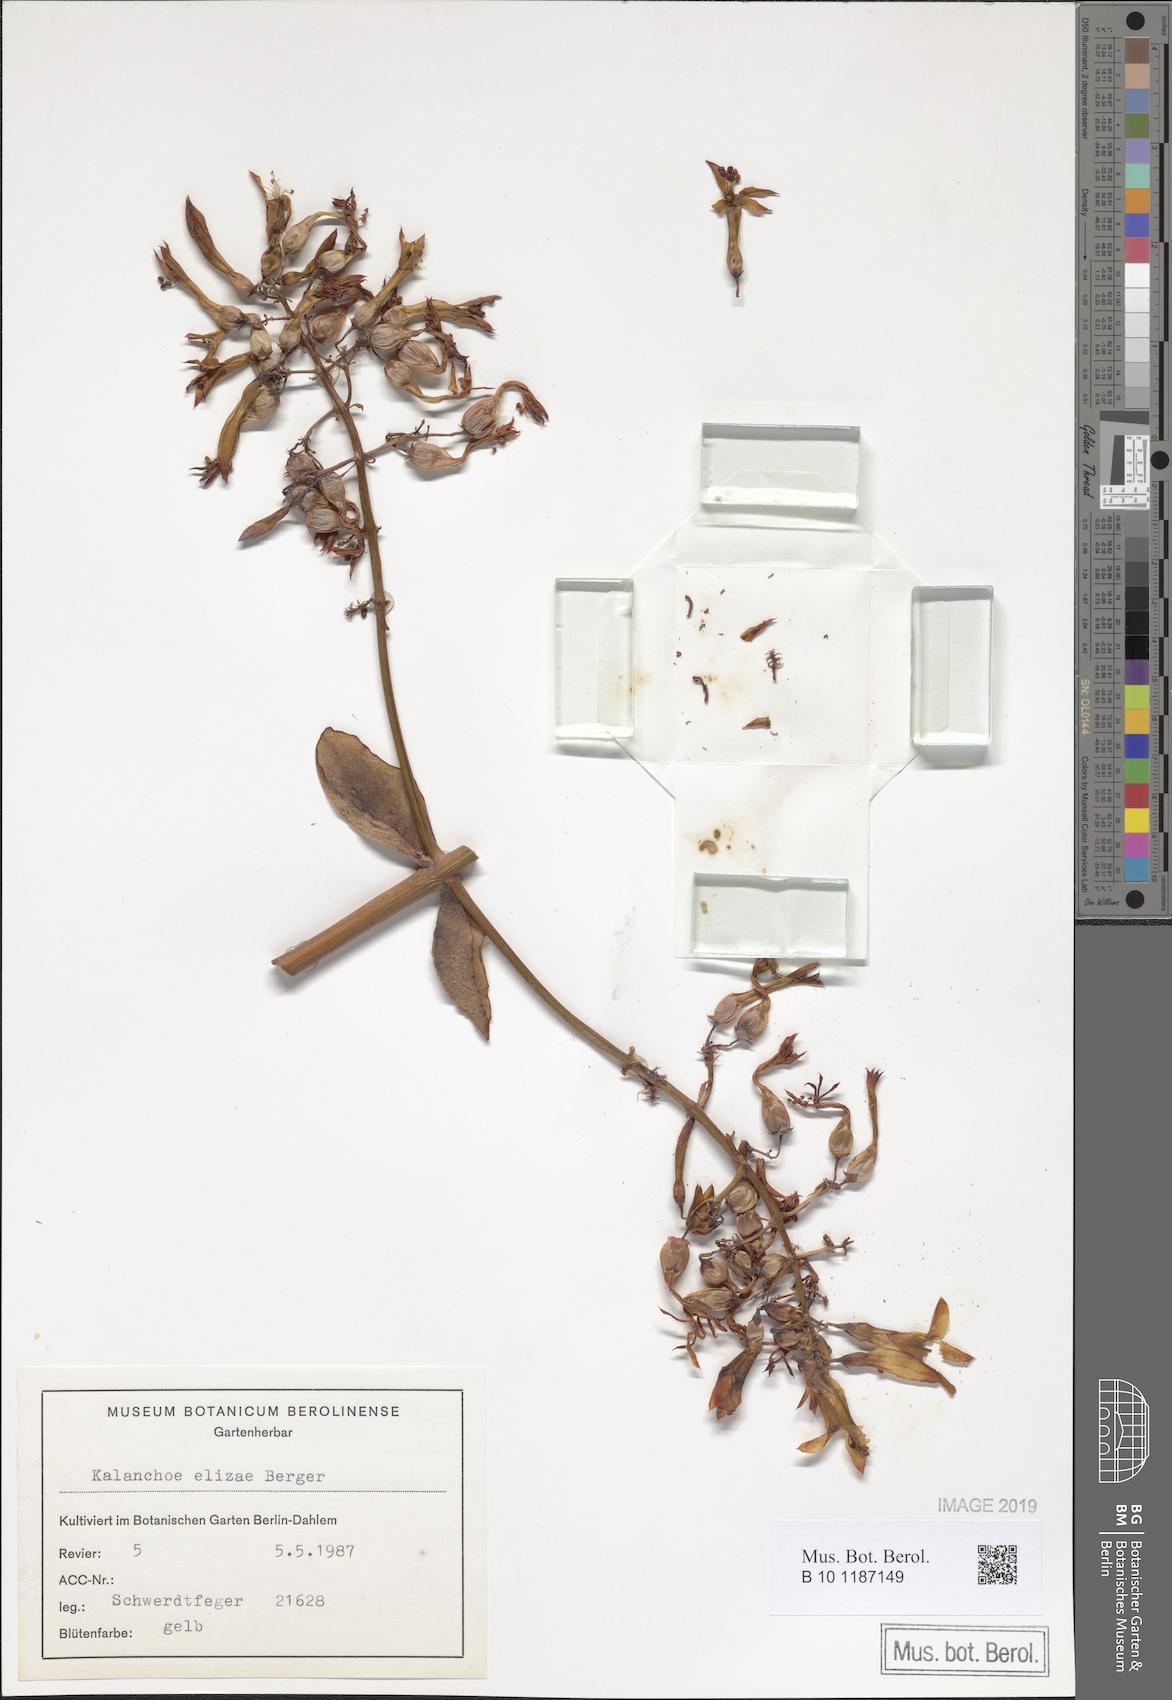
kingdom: Plantae
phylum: Tracheophyta
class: Magnoliopsida
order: Saxifragales
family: Crassulaceae
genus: Kalanchoe
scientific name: Kalanchoe elizae
